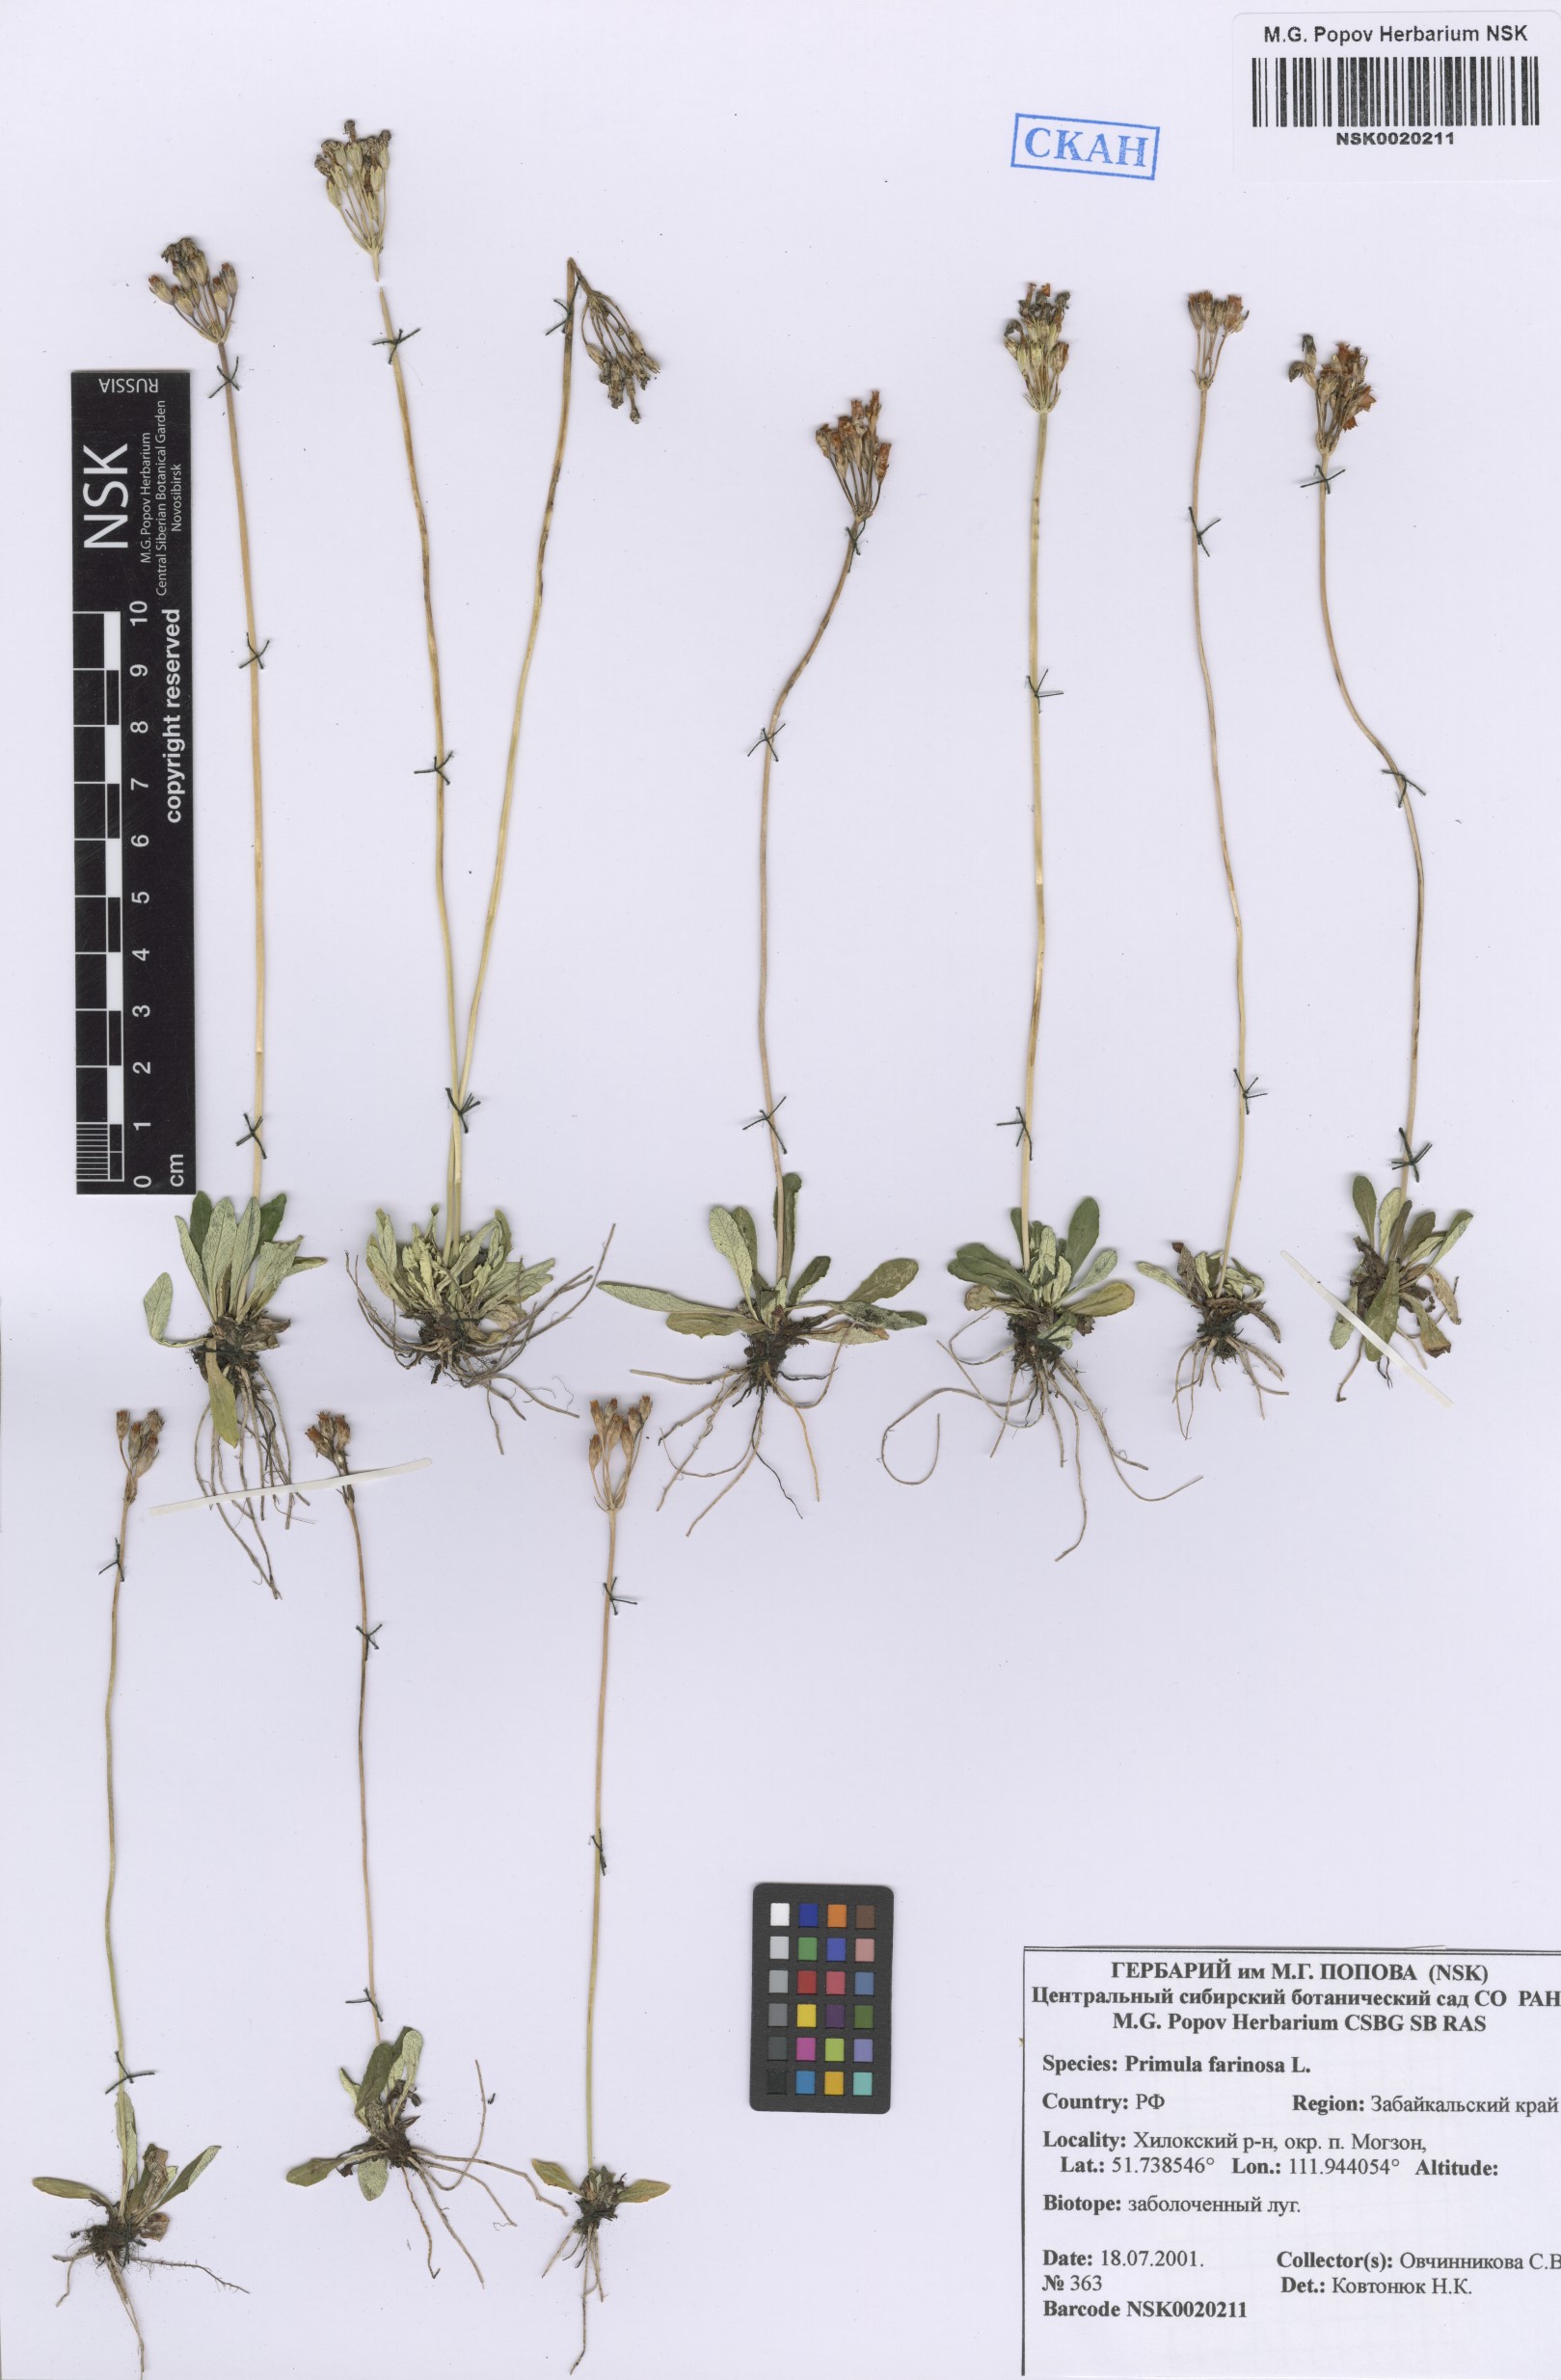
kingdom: Plantae
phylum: Tracheophyta
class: Magnoliopsida
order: Ericales
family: Primulaceae
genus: Primula
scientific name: Primula farinosa
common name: Bird's-eye primrose
